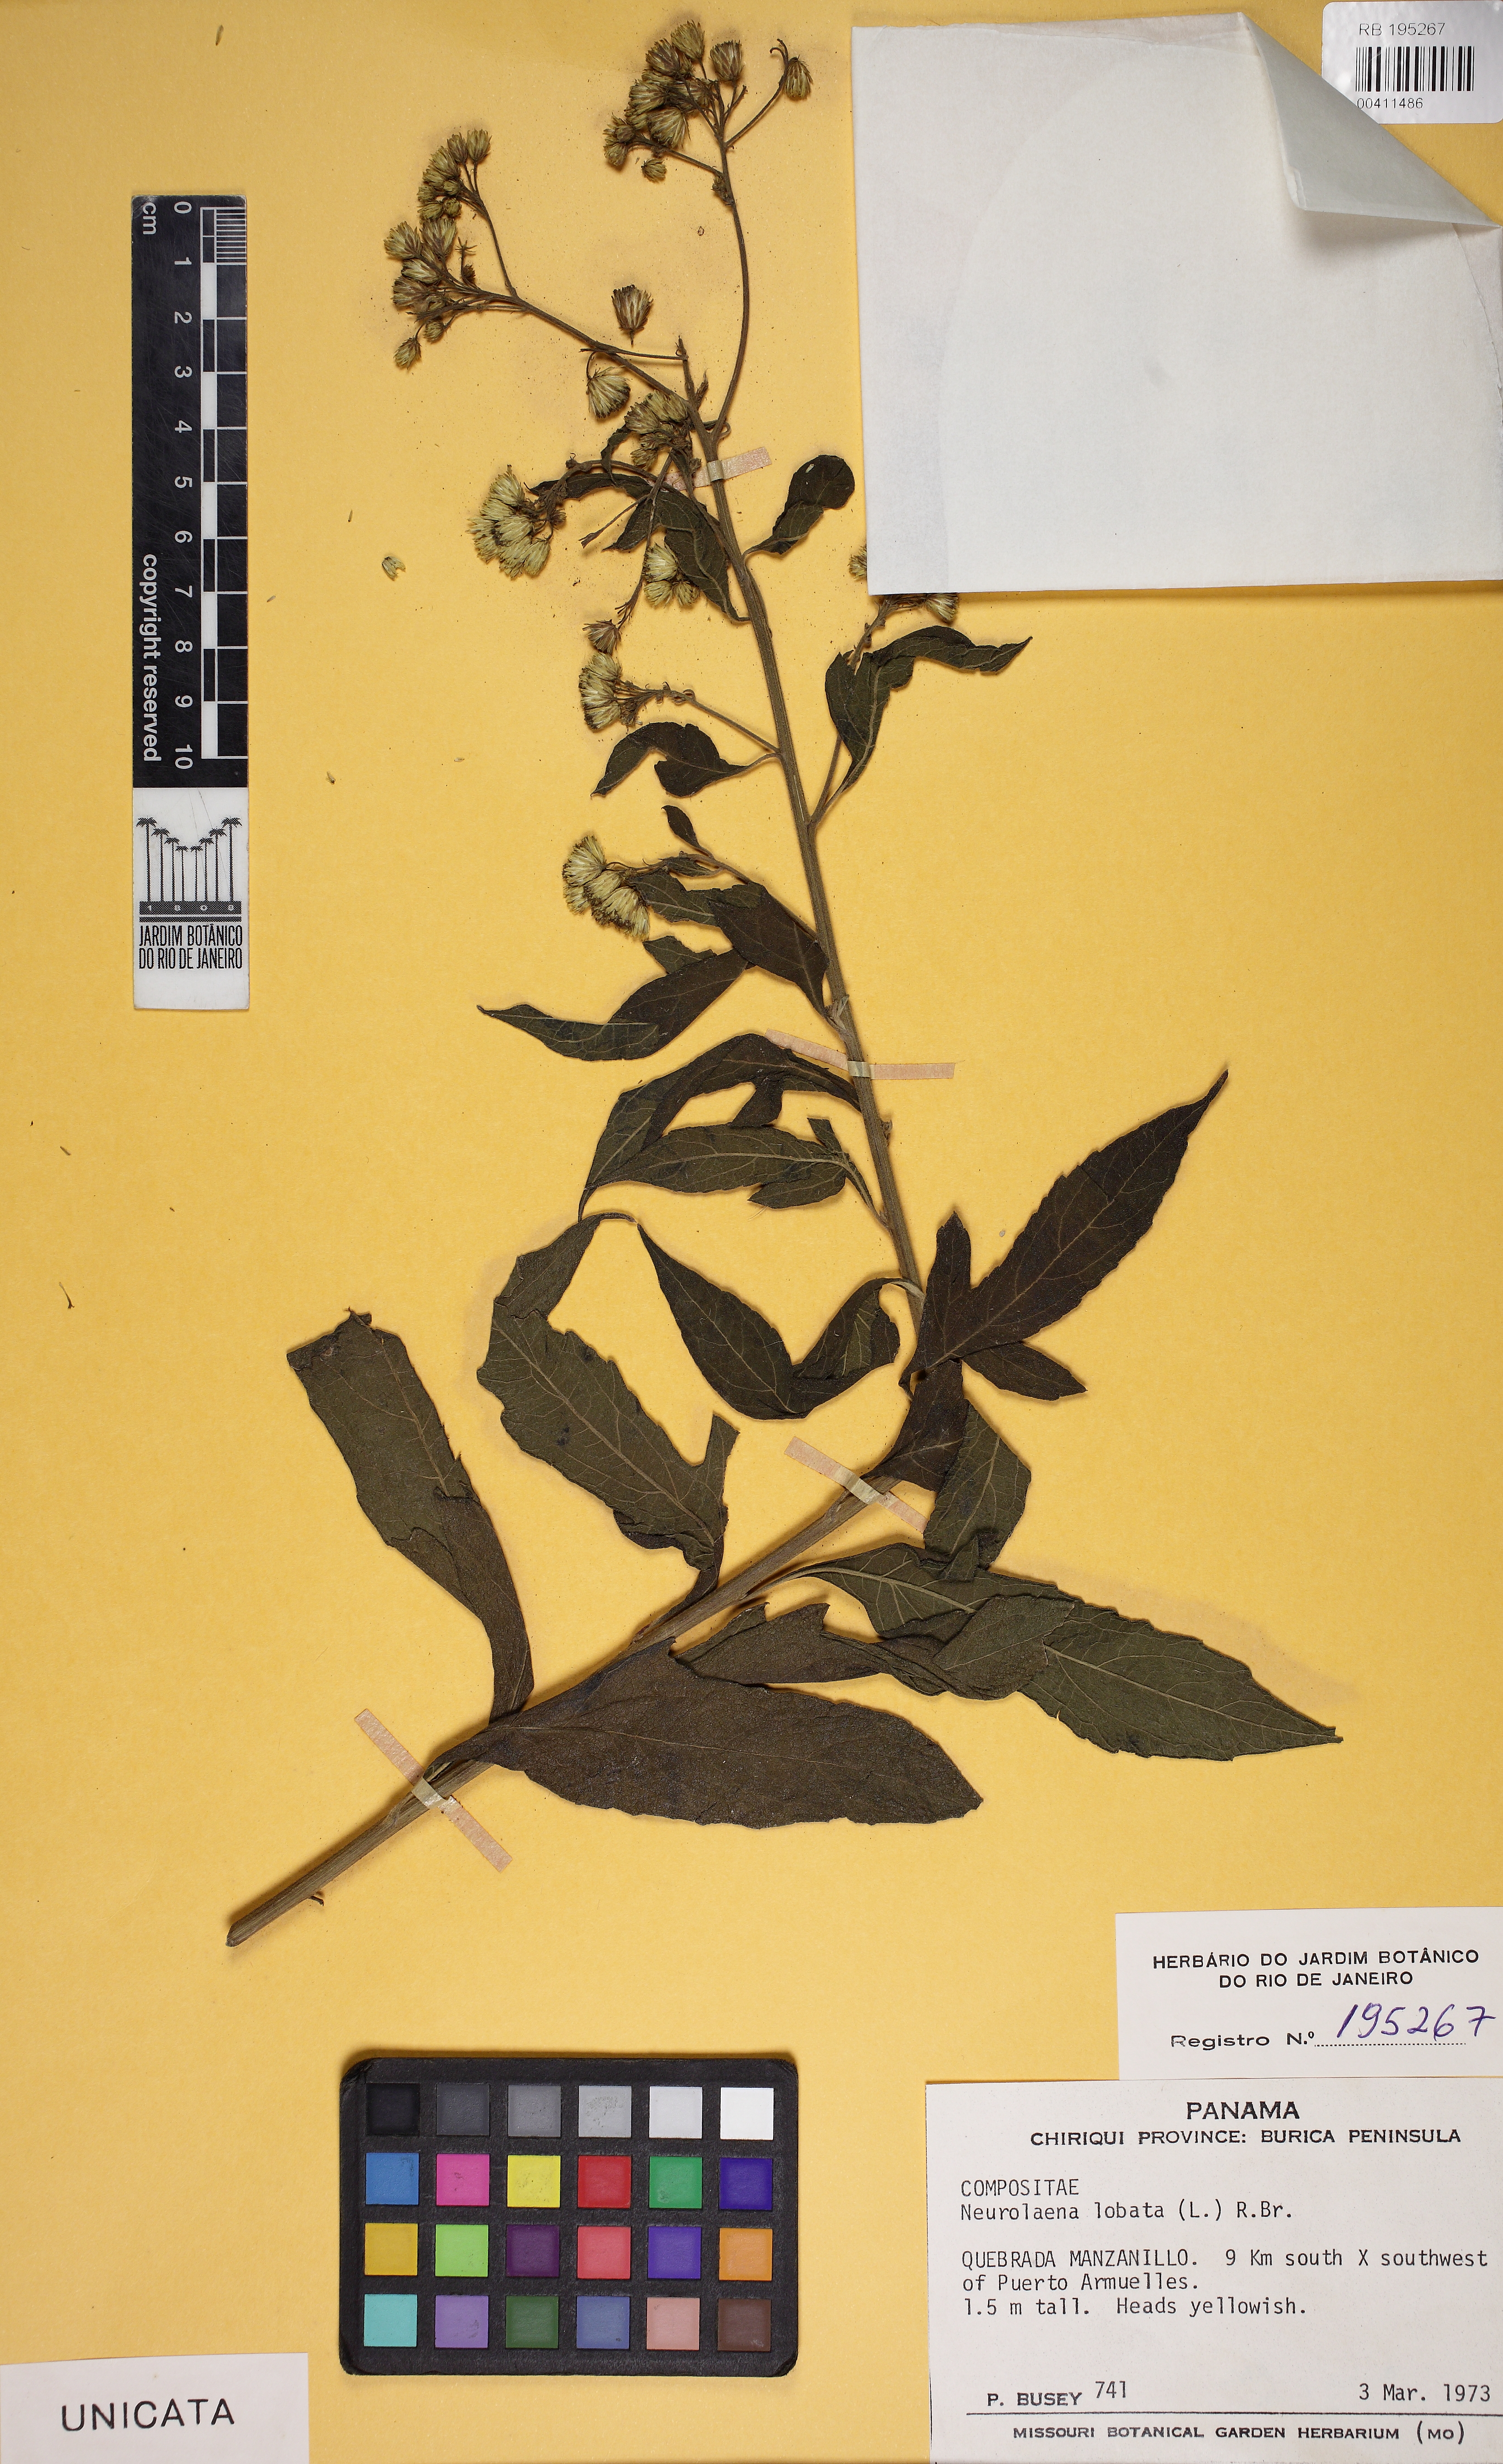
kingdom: Plantae
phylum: Tracheophyta
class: Magnoliopsida
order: Asterales
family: Asteraceae
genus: Neurolaena
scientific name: Neurolaena lobata
